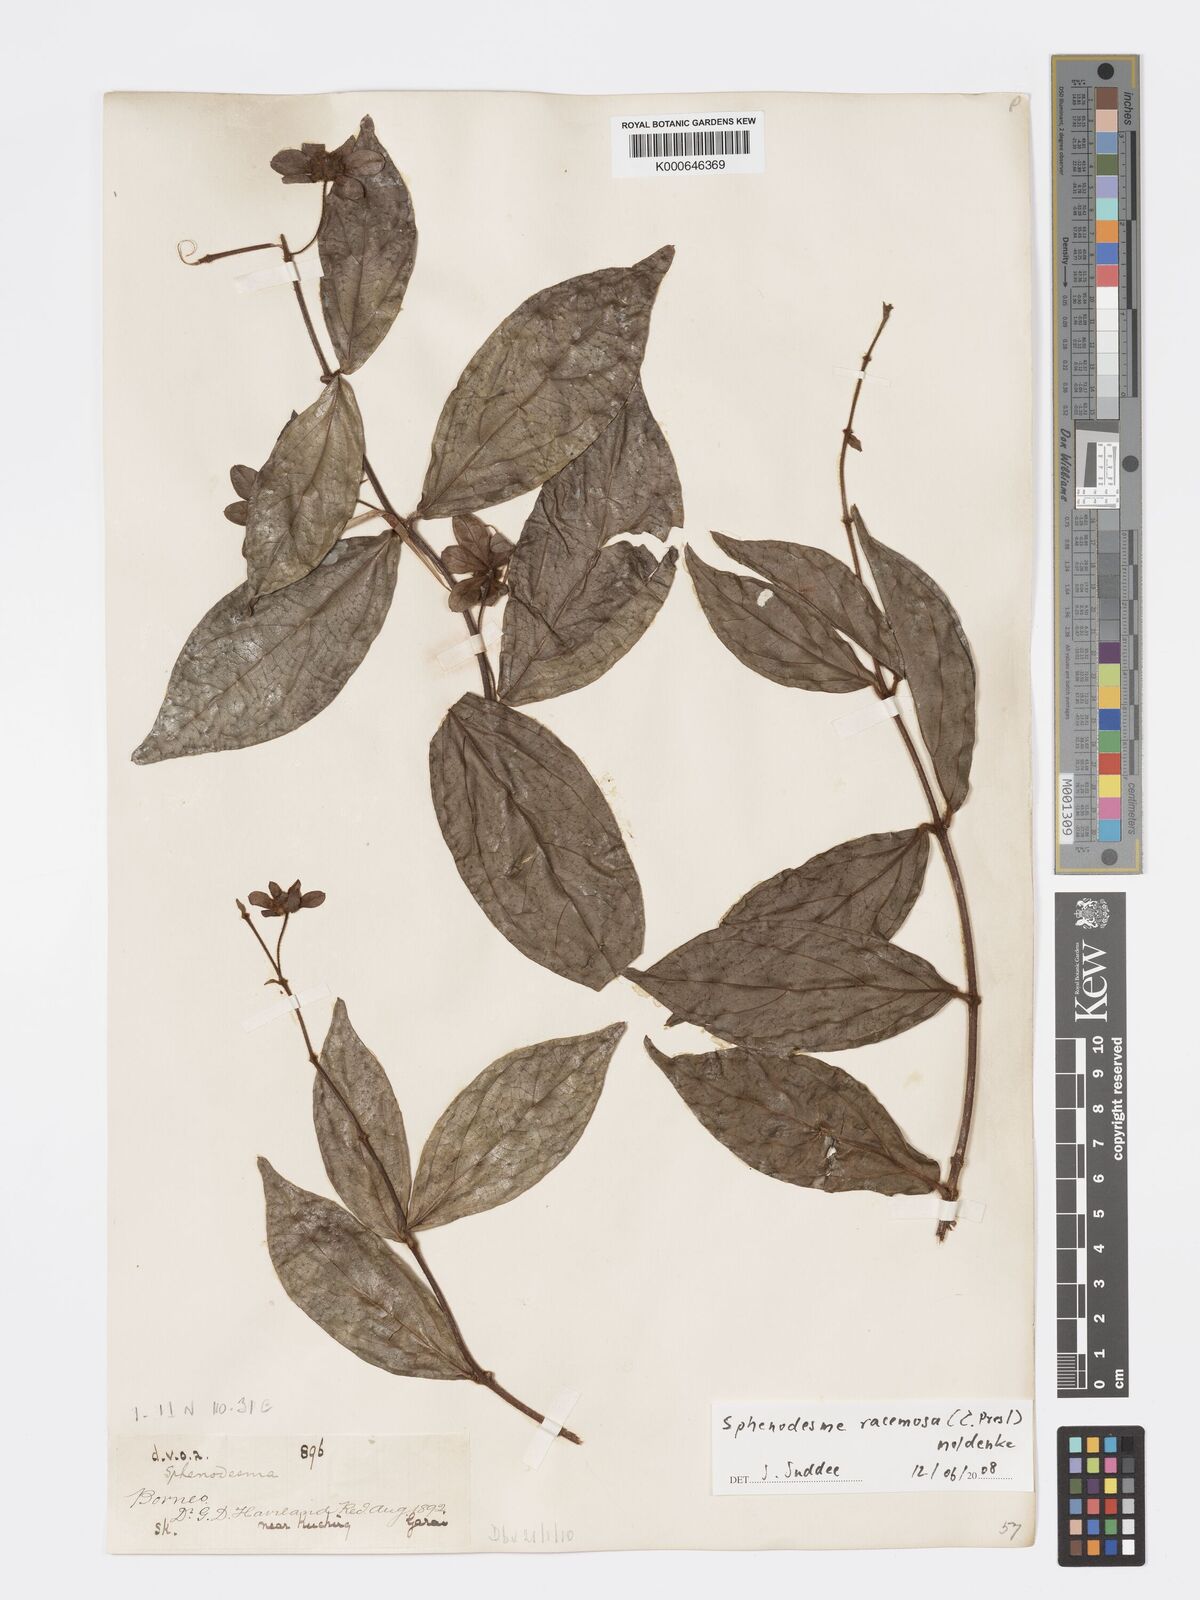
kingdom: Plantae
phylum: Tracheophyta
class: Magnoliopsida
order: Lamiales
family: Lamiaceae
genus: Sphenodesme
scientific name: Sphenodesme racemosa
